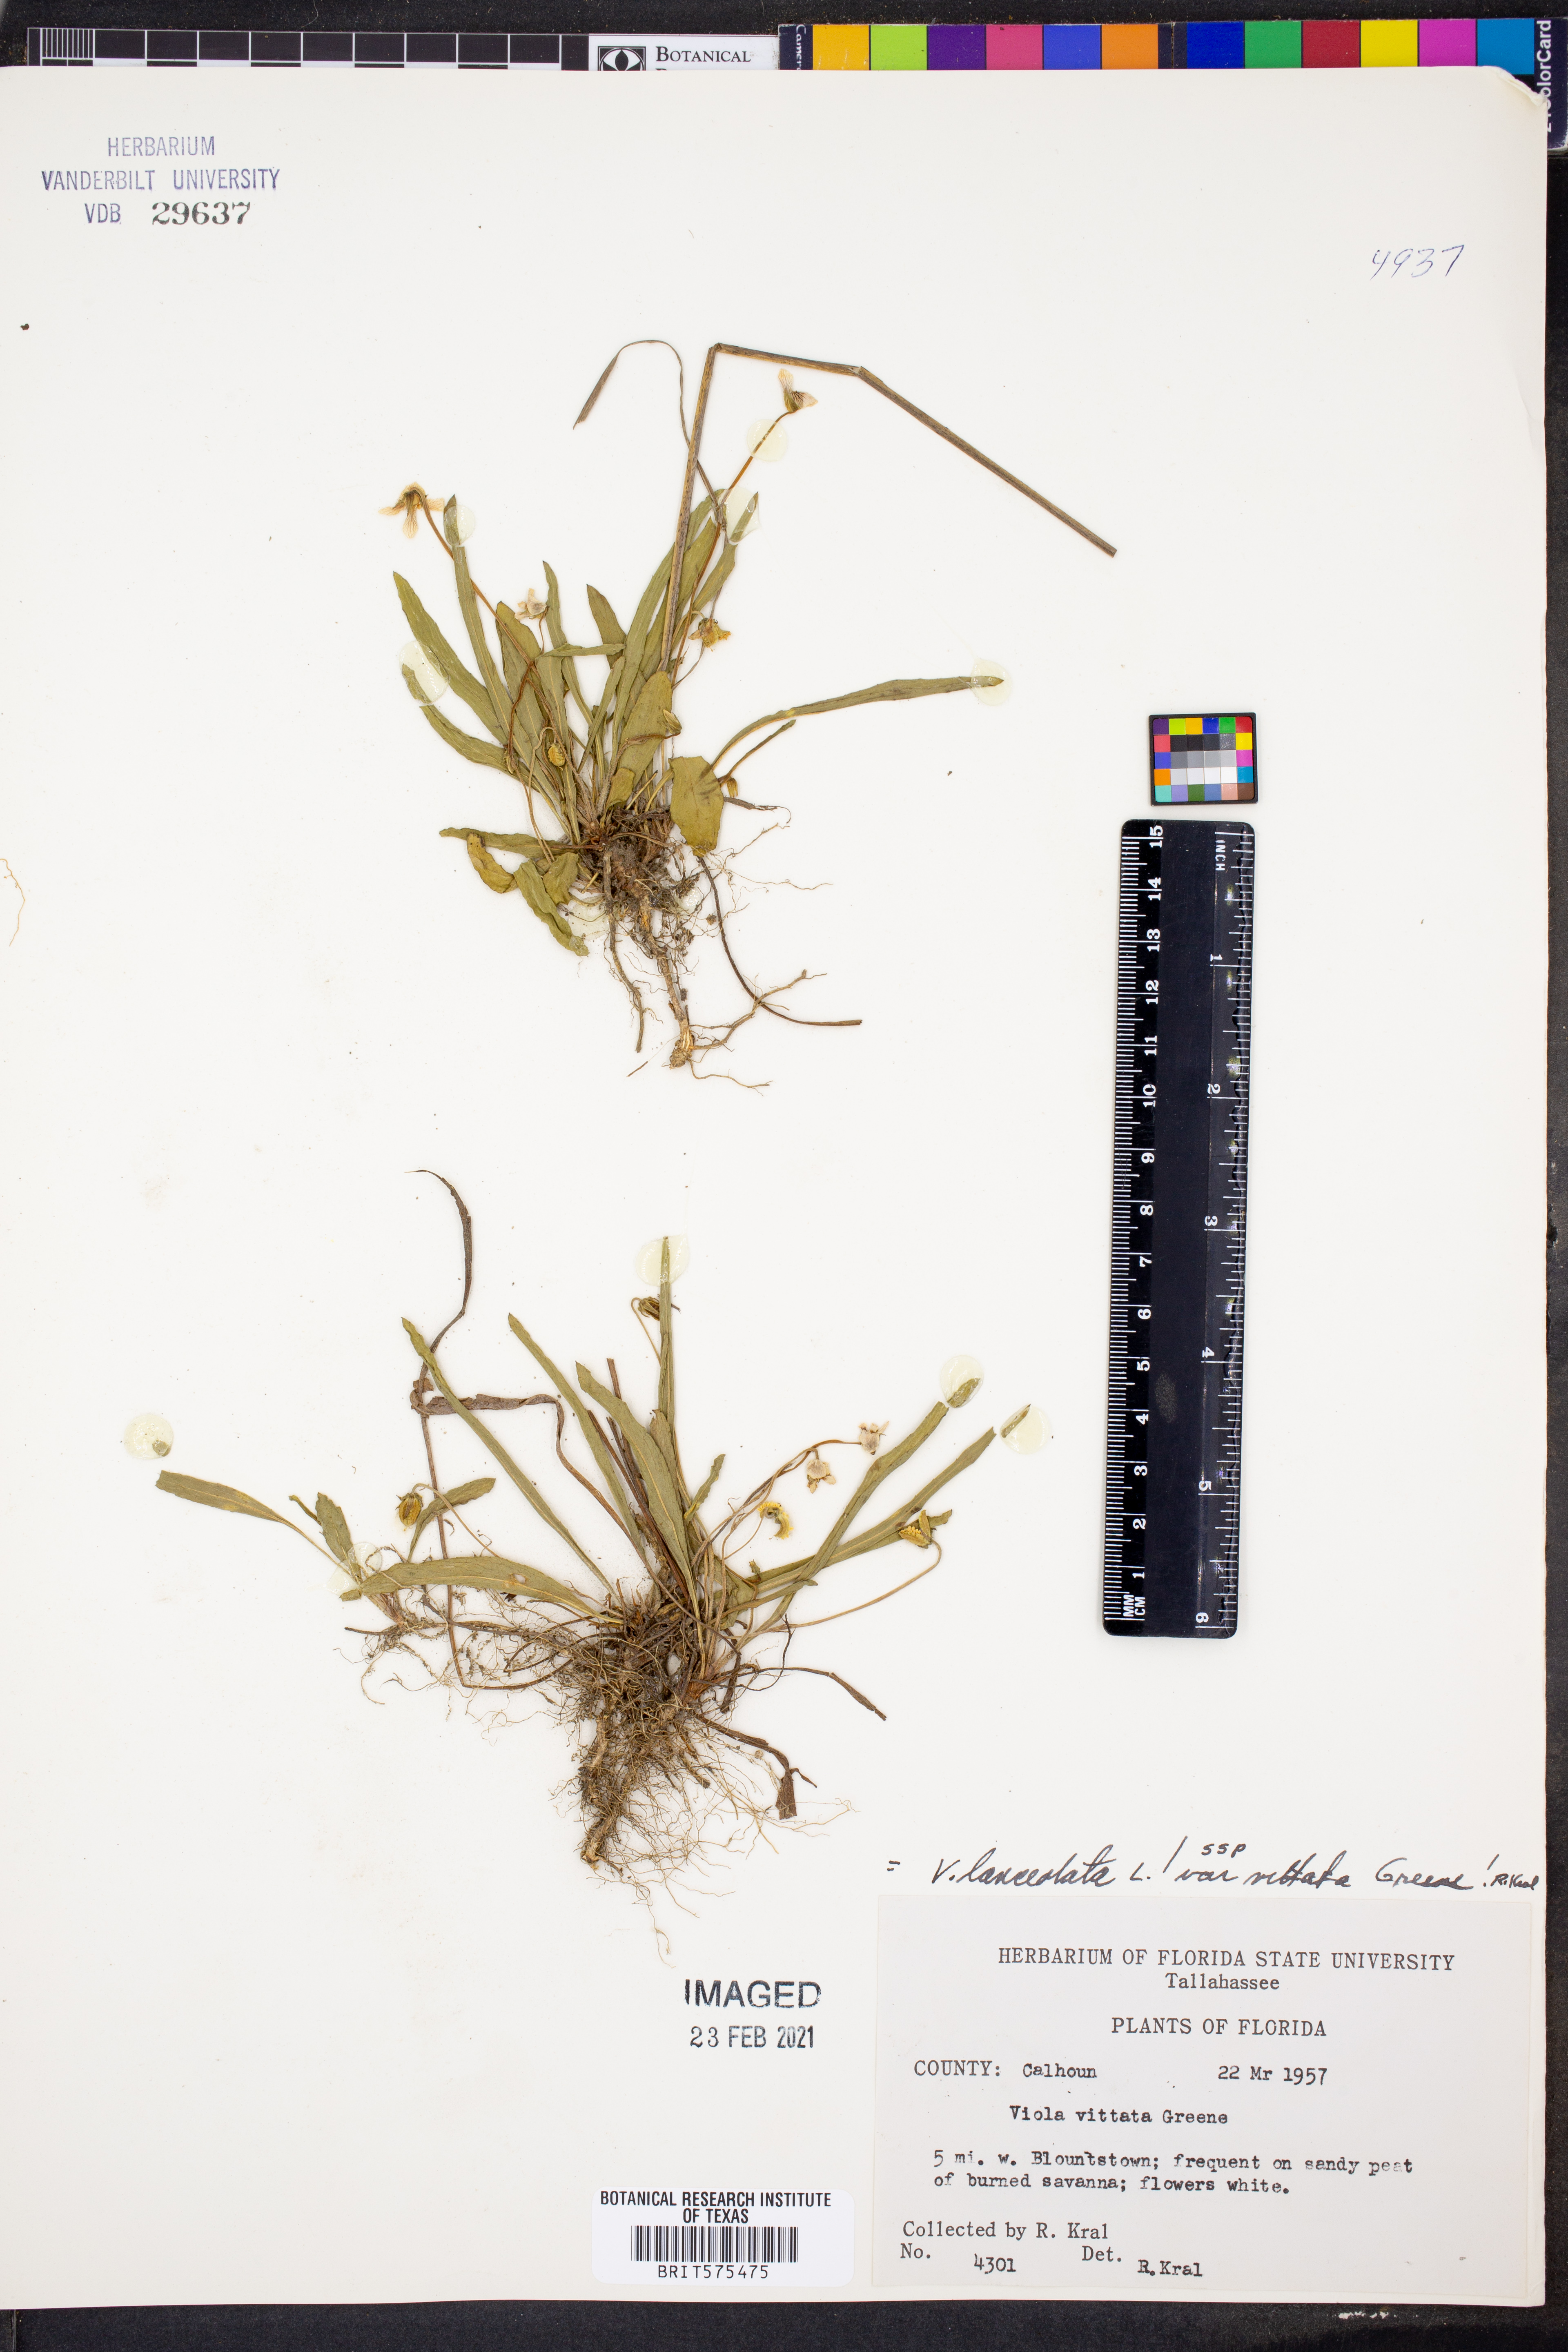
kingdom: Plantae
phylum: Tracheophyta
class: Magnoliopsida
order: Malpighiales
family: Violaceae
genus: Viola
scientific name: Viola vittata
